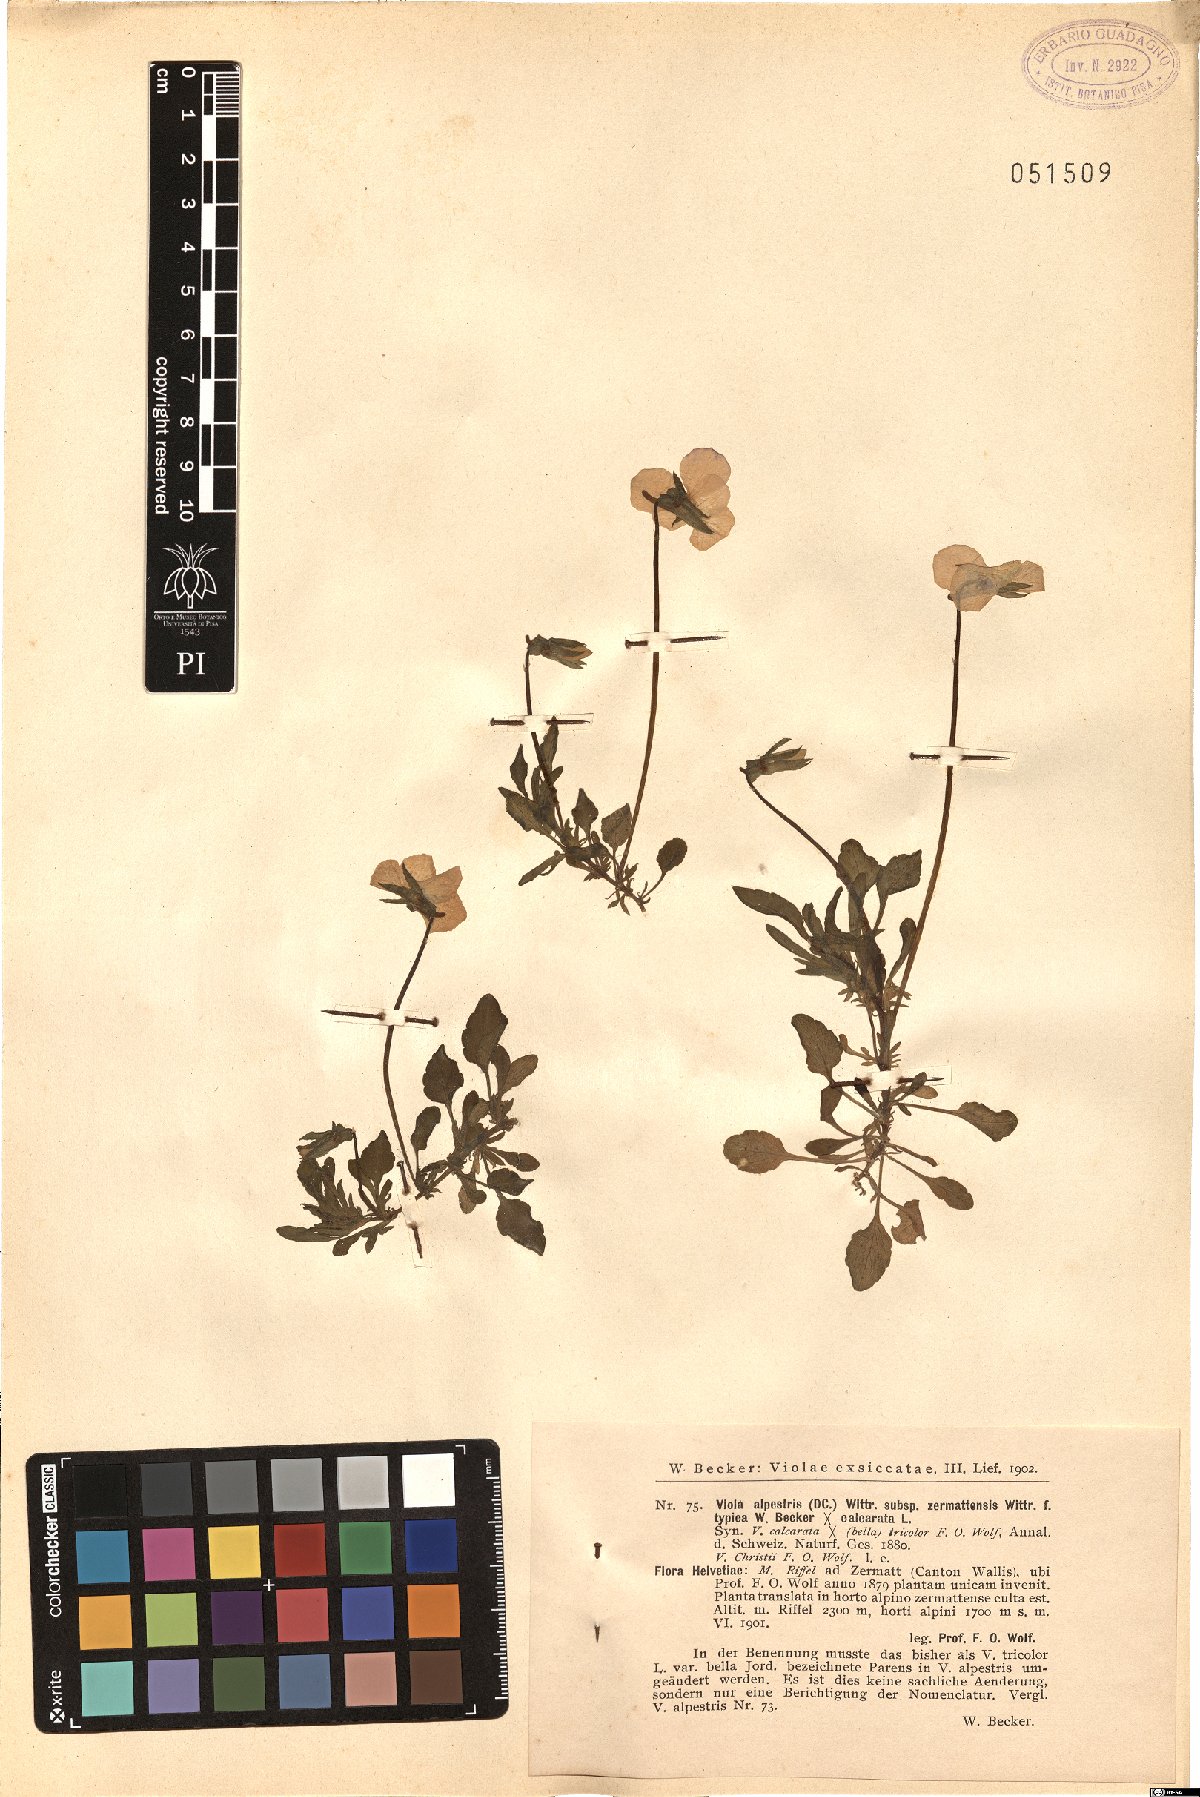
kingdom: Plantae
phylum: Tracheophyta
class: Magnoliopsida
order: Malpighiales
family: Violaceae
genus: Viola
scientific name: Viola tricolor
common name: Pansy
